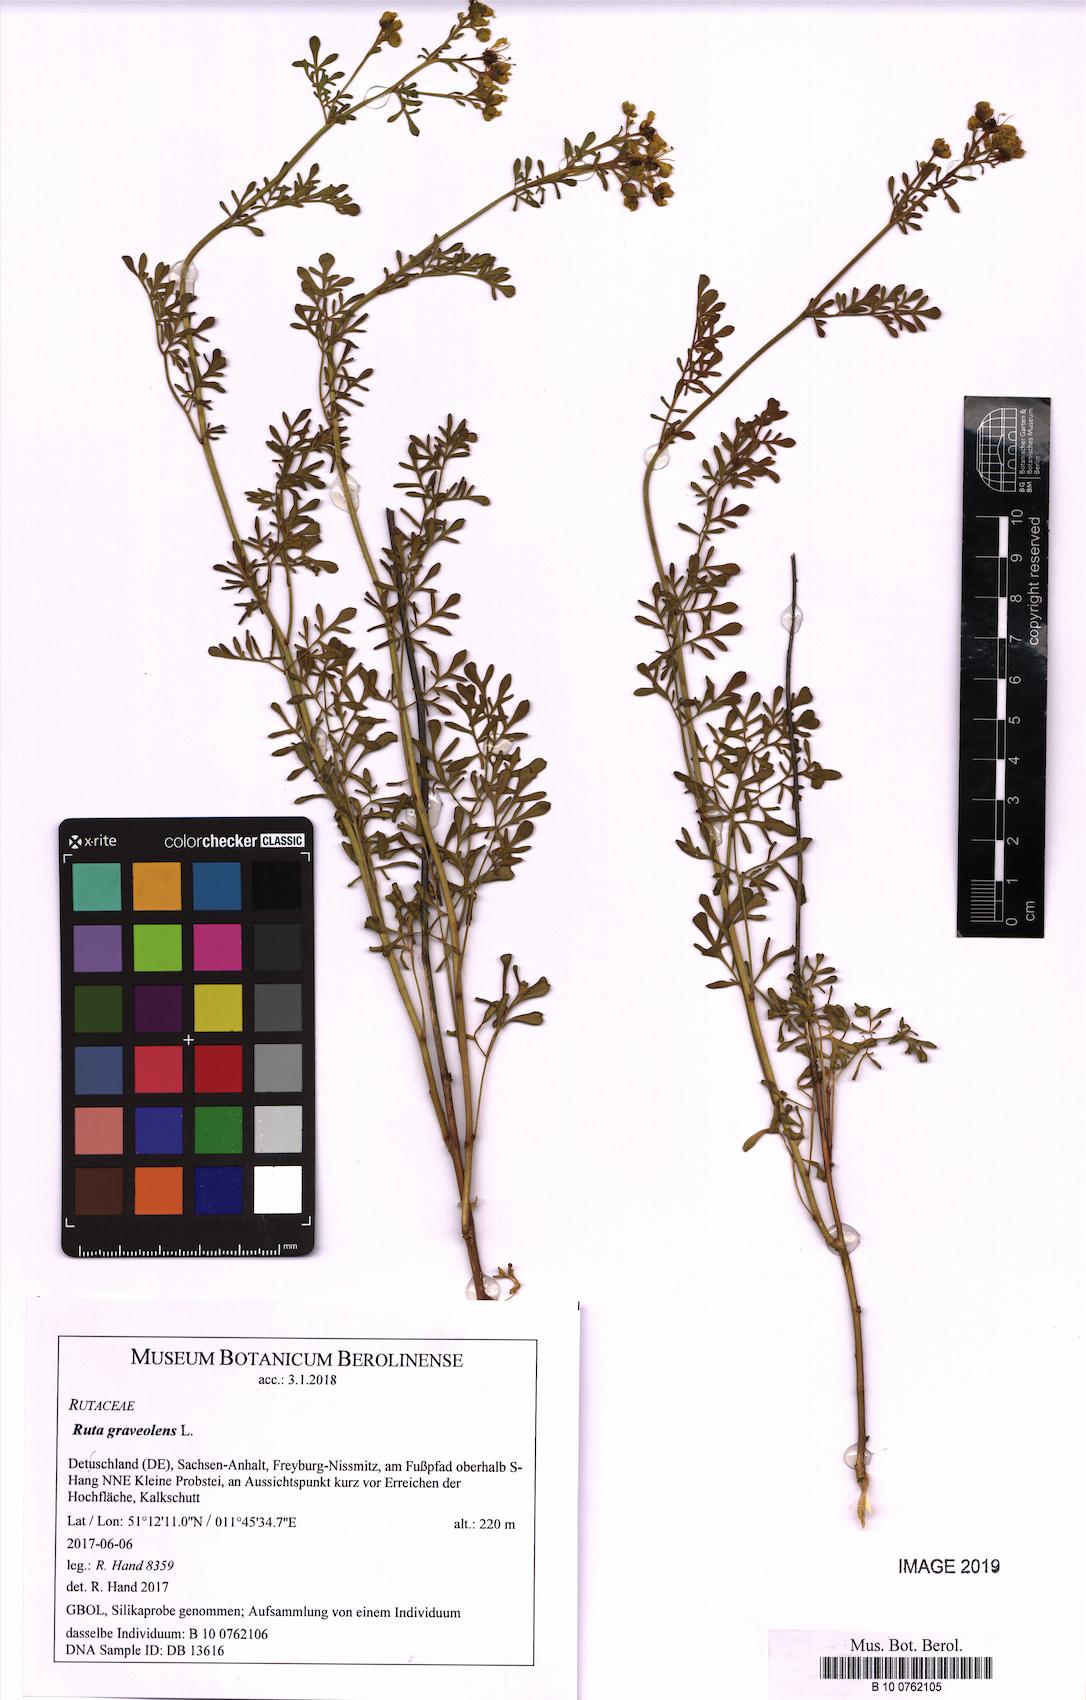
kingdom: Plantae
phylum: Tracheophyta
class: Magnoliopsida
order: Sapindales
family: Rutaceae
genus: Ruta
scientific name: Ruta graveolens
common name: Common rue
